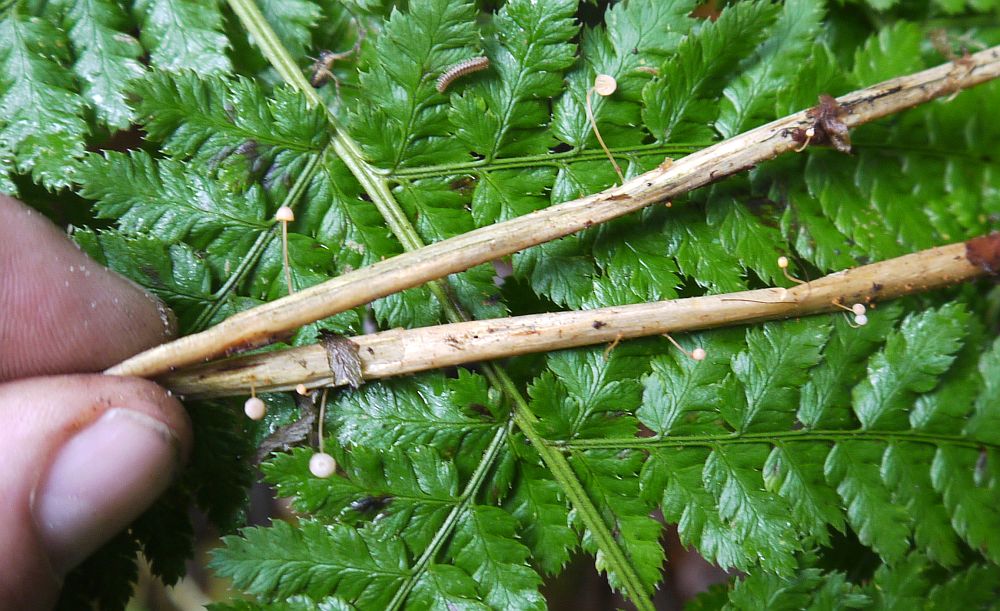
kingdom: Fungi
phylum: Basidiomycota
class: Agaricomycetes
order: Agaricales
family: Mycenaceae
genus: Mycena
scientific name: Mycena pterigena
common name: bregne-huesvamp
